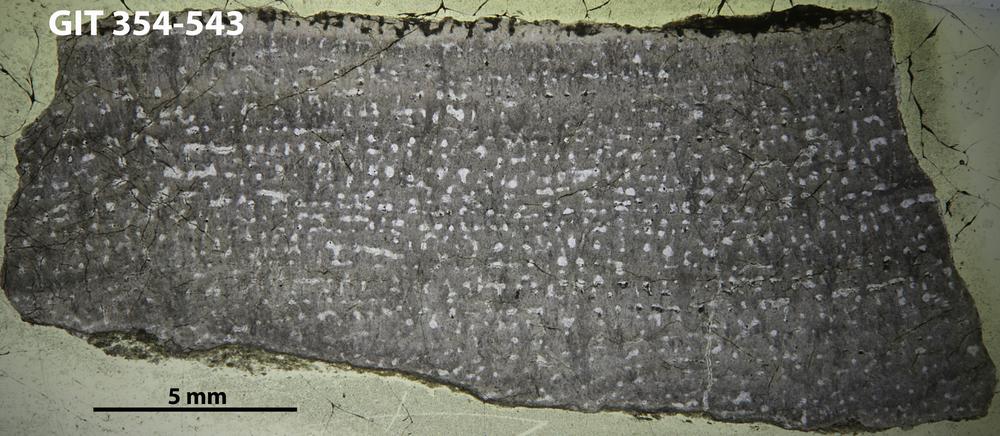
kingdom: Animalia
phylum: Porifera
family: Stromatoporidae
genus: Eostromatopora
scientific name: Eostromatopora
